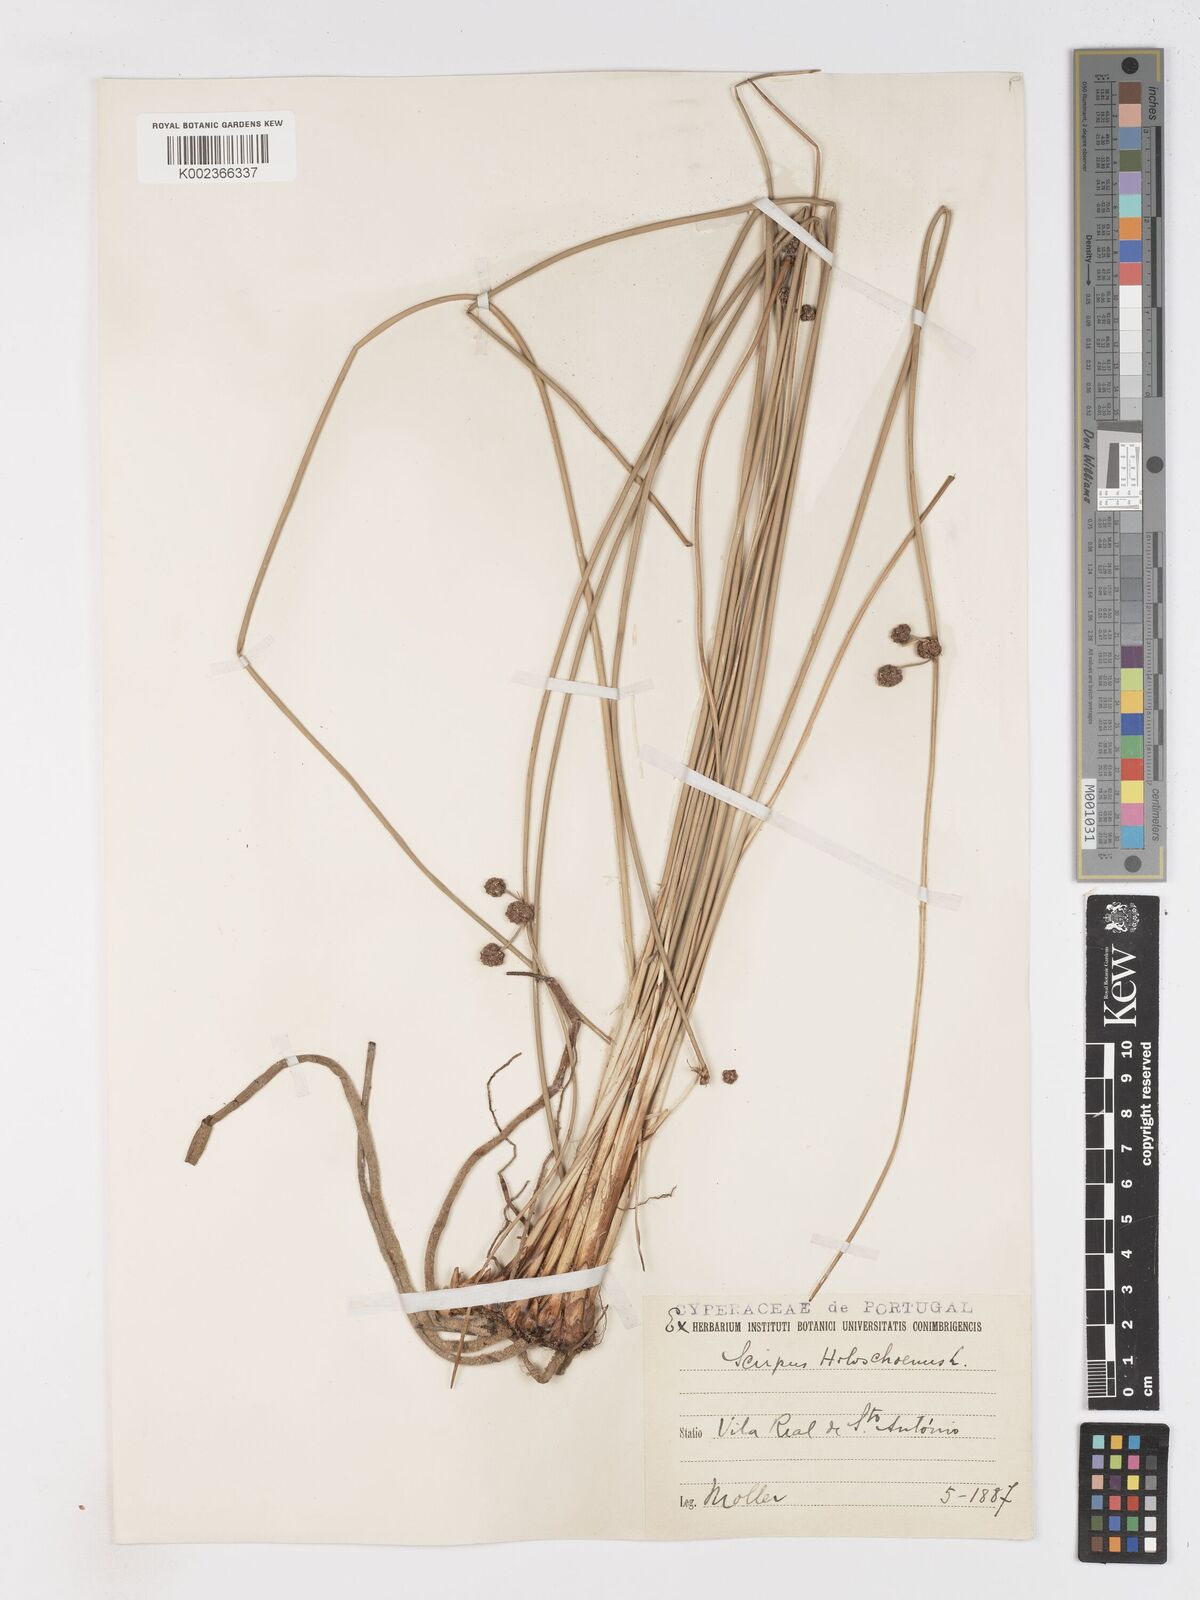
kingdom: Plantae
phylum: Tracheophyta
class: Liliopsida
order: Poales
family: Cyperaceae
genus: Scirpoides
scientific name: Scirpoides holoschoenus
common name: Round-headed club-rush
